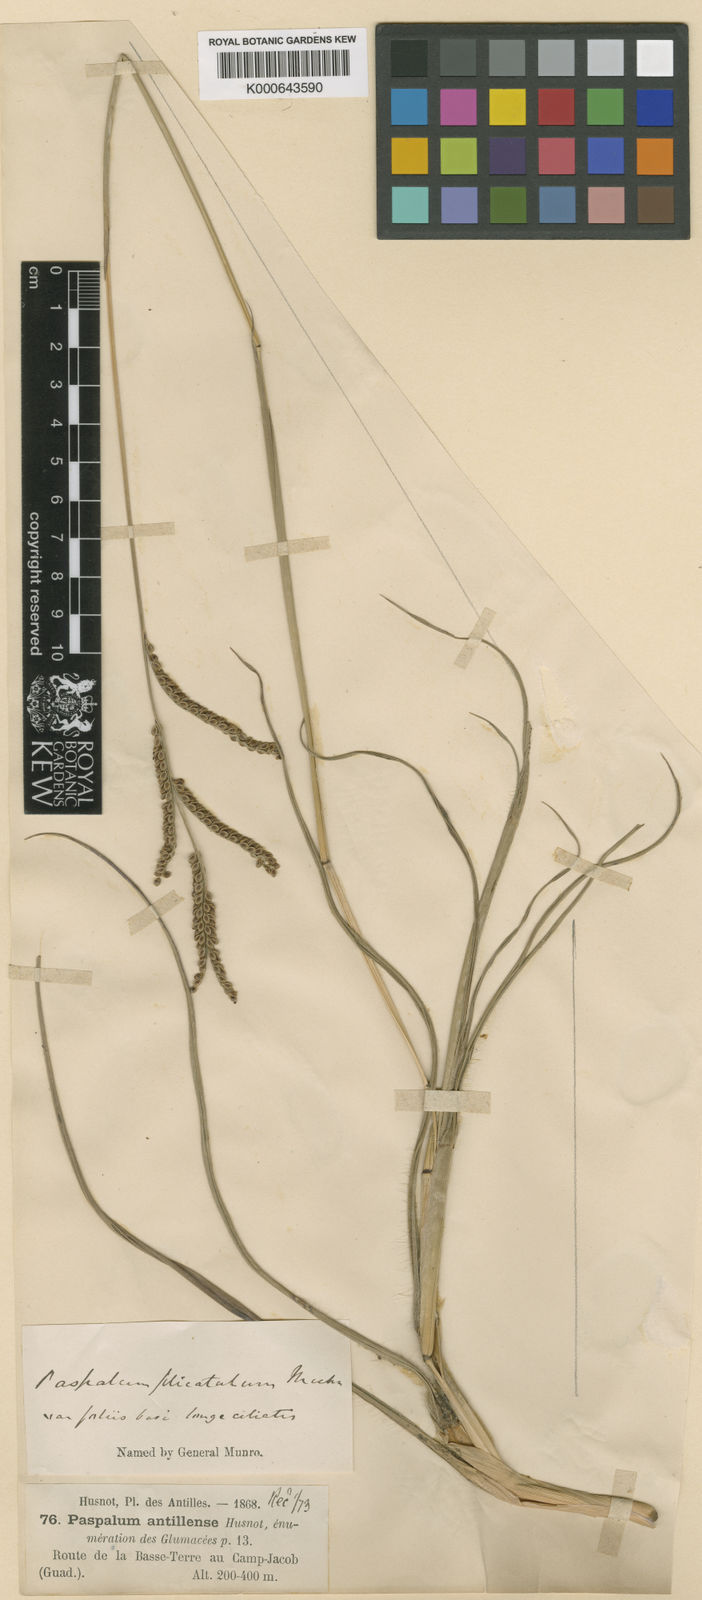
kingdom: Plantae
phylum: Tracheophyta
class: Liliopsida
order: Poales
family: Poaceae
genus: Paspalum
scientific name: Paspalum plicatulum
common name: Top paspalum
